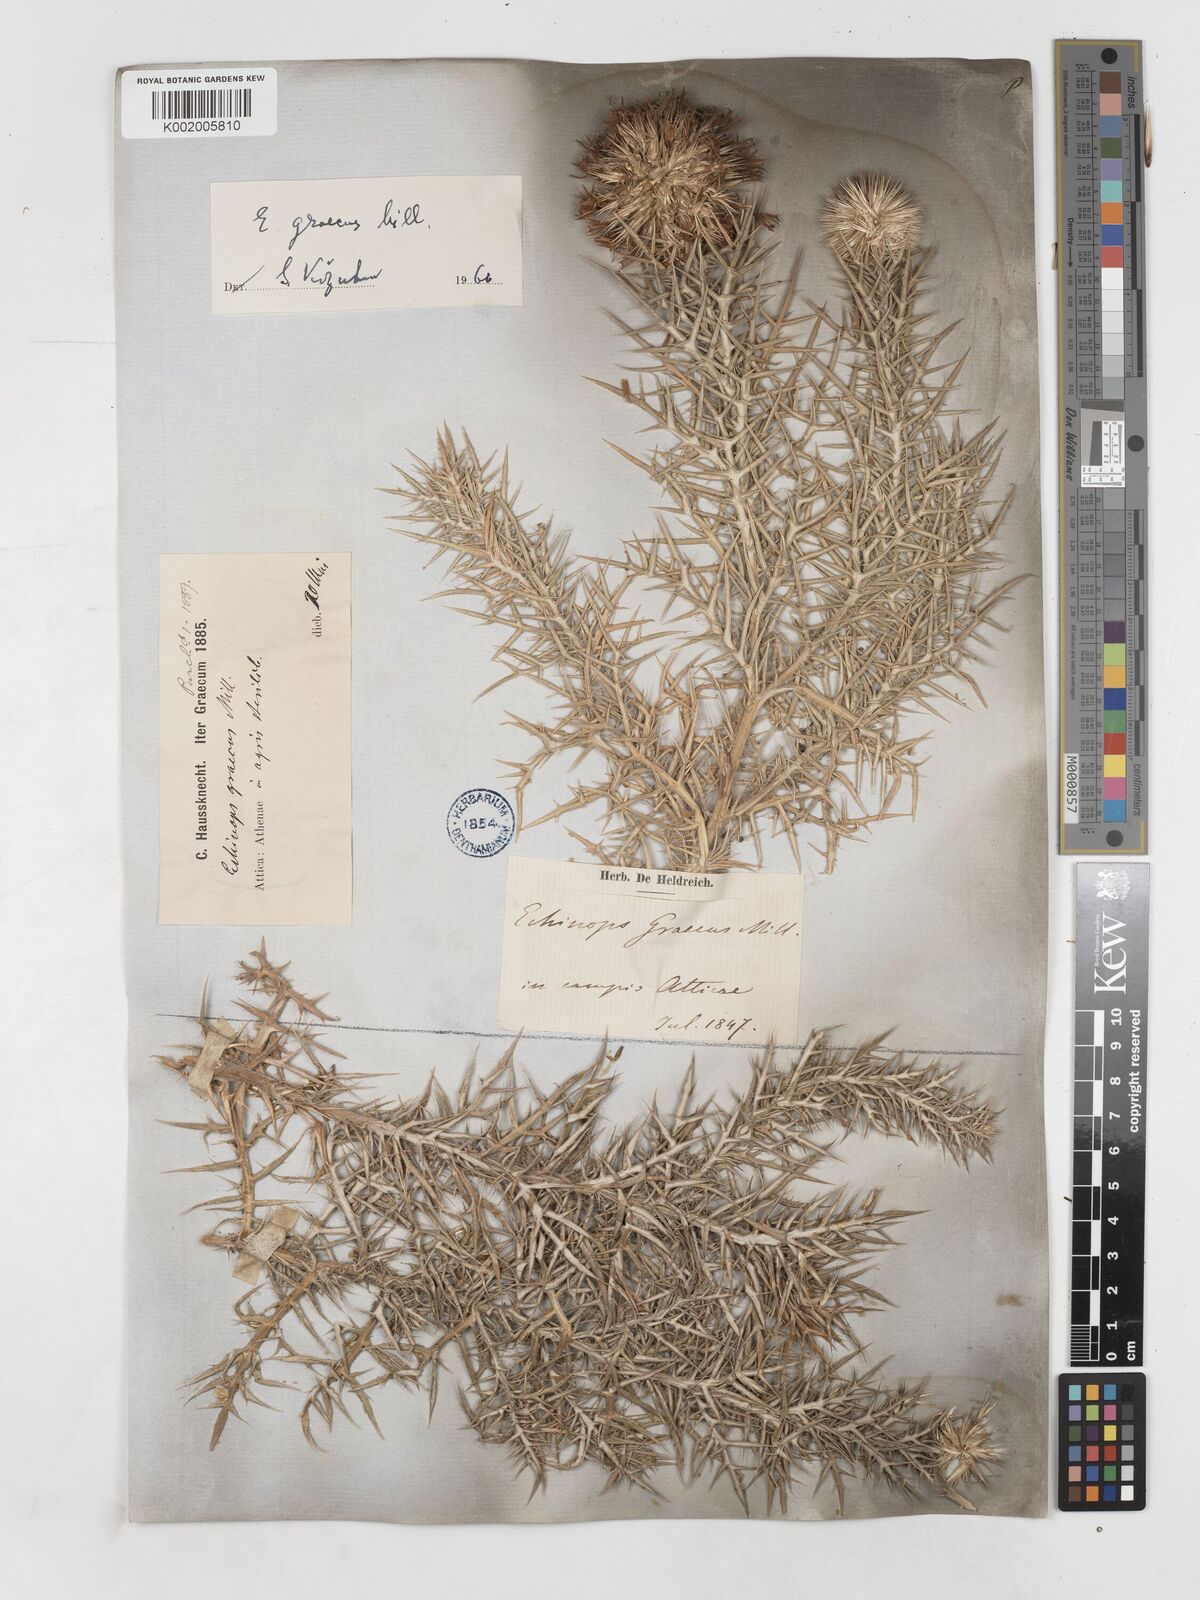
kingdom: Plantae
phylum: Tracheophyta
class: Magnoliopsida
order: Asterales
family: Asteraceae
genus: Echinops
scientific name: Echinops graecus
